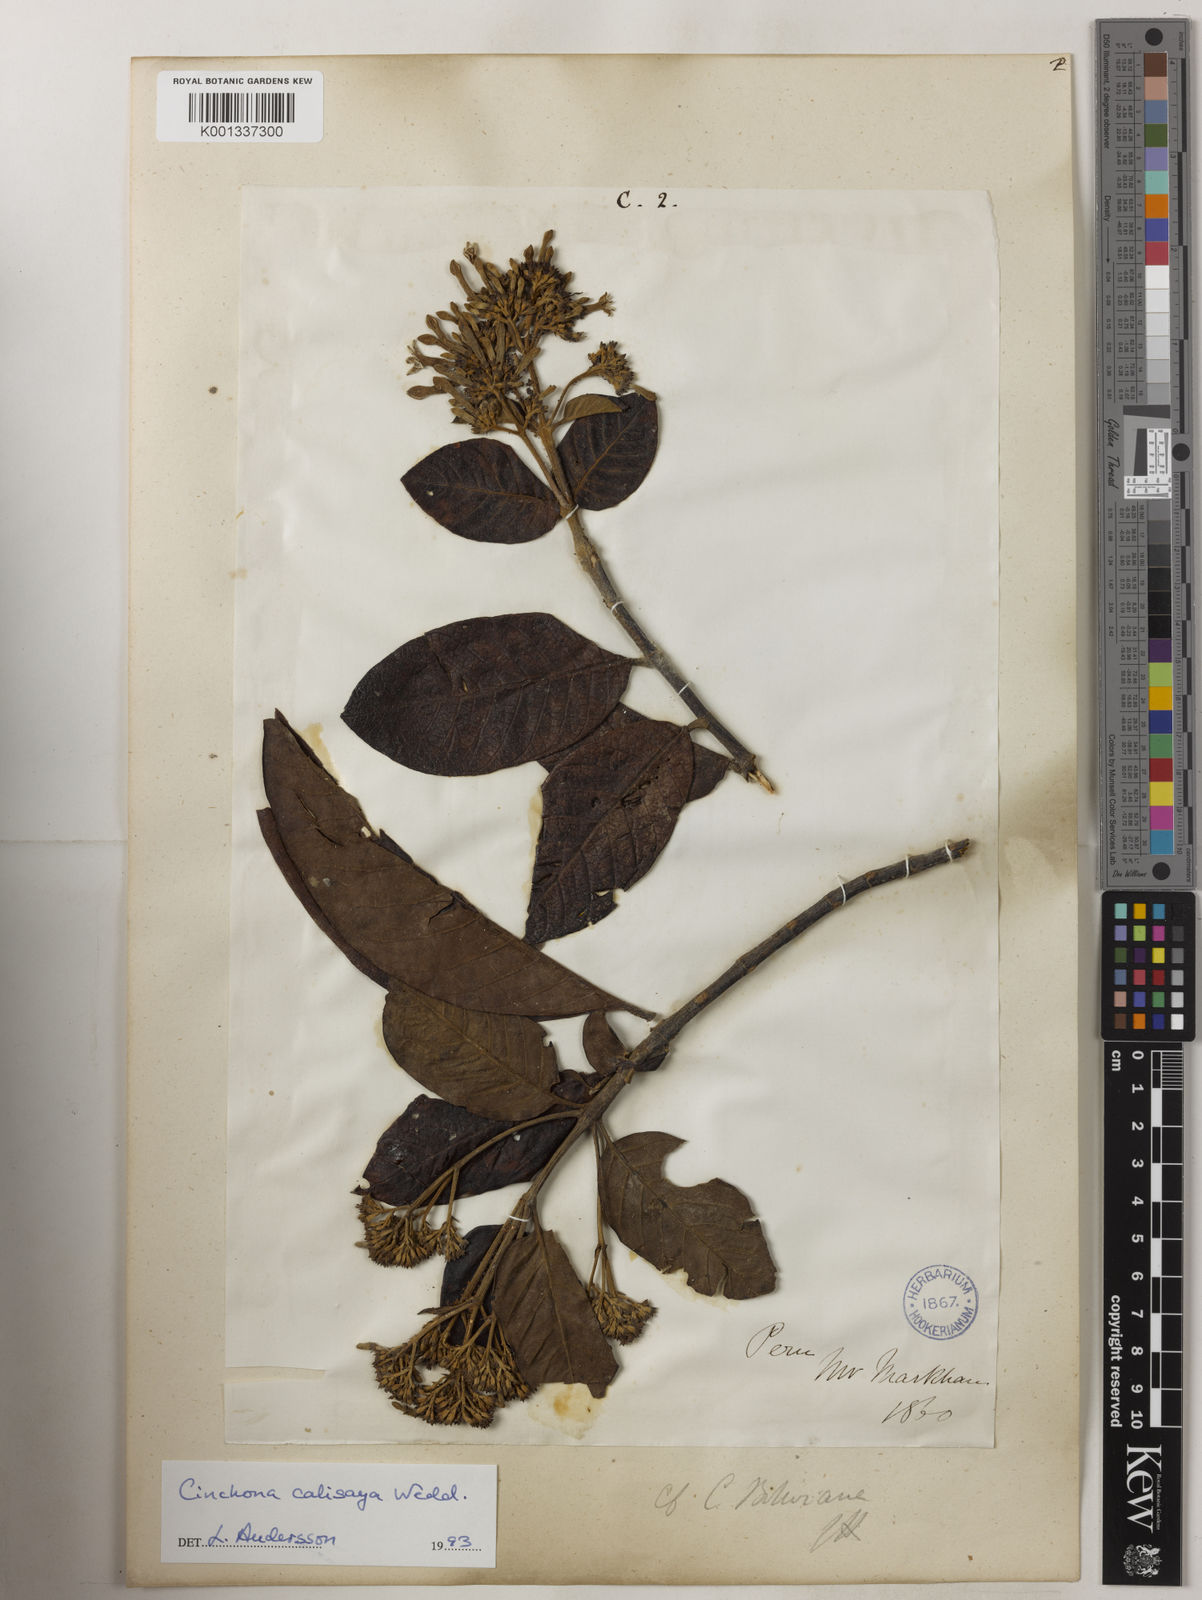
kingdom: Plantae
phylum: Tracheophyta
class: Magnoliopsida
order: Gentianales
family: Rubiaceae
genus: Cinchona
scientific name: Cinchona calisaya
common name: Ledgerbark
